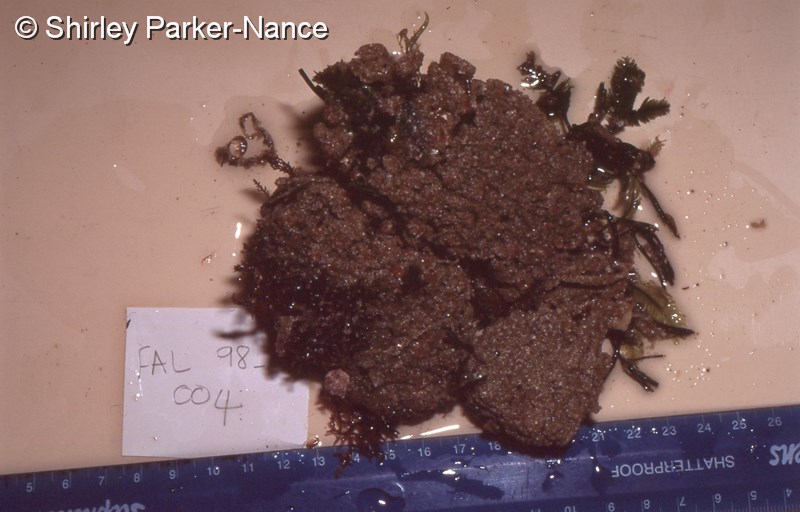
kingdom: Animalia
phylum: Chordata
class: Ascidiacea
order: Aplousobranchia
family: Polyclinidae
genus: Aplidium
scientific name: Aplidium
